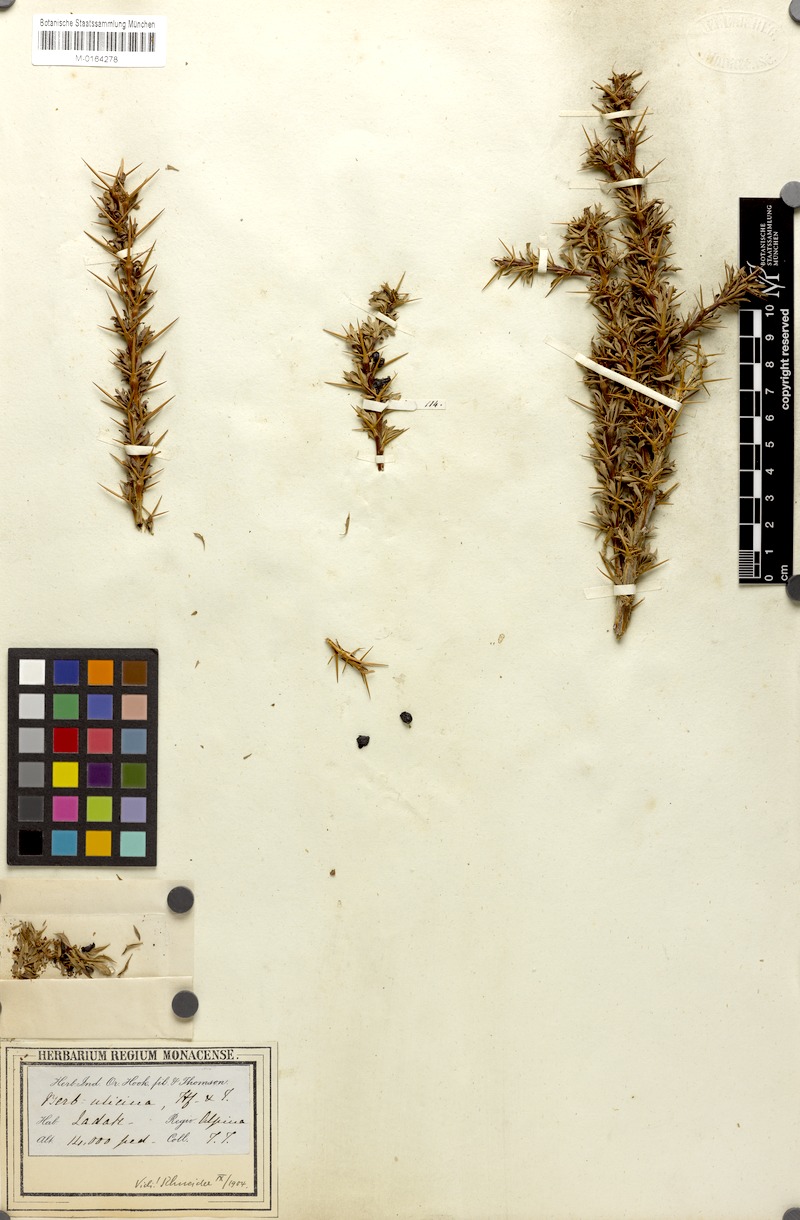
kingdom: Plantae
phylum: Tracheophyta
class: Magnoliopsida
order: Ranunculales
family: Berberidaceae
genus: Berberis
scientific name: Berberis ulicina
